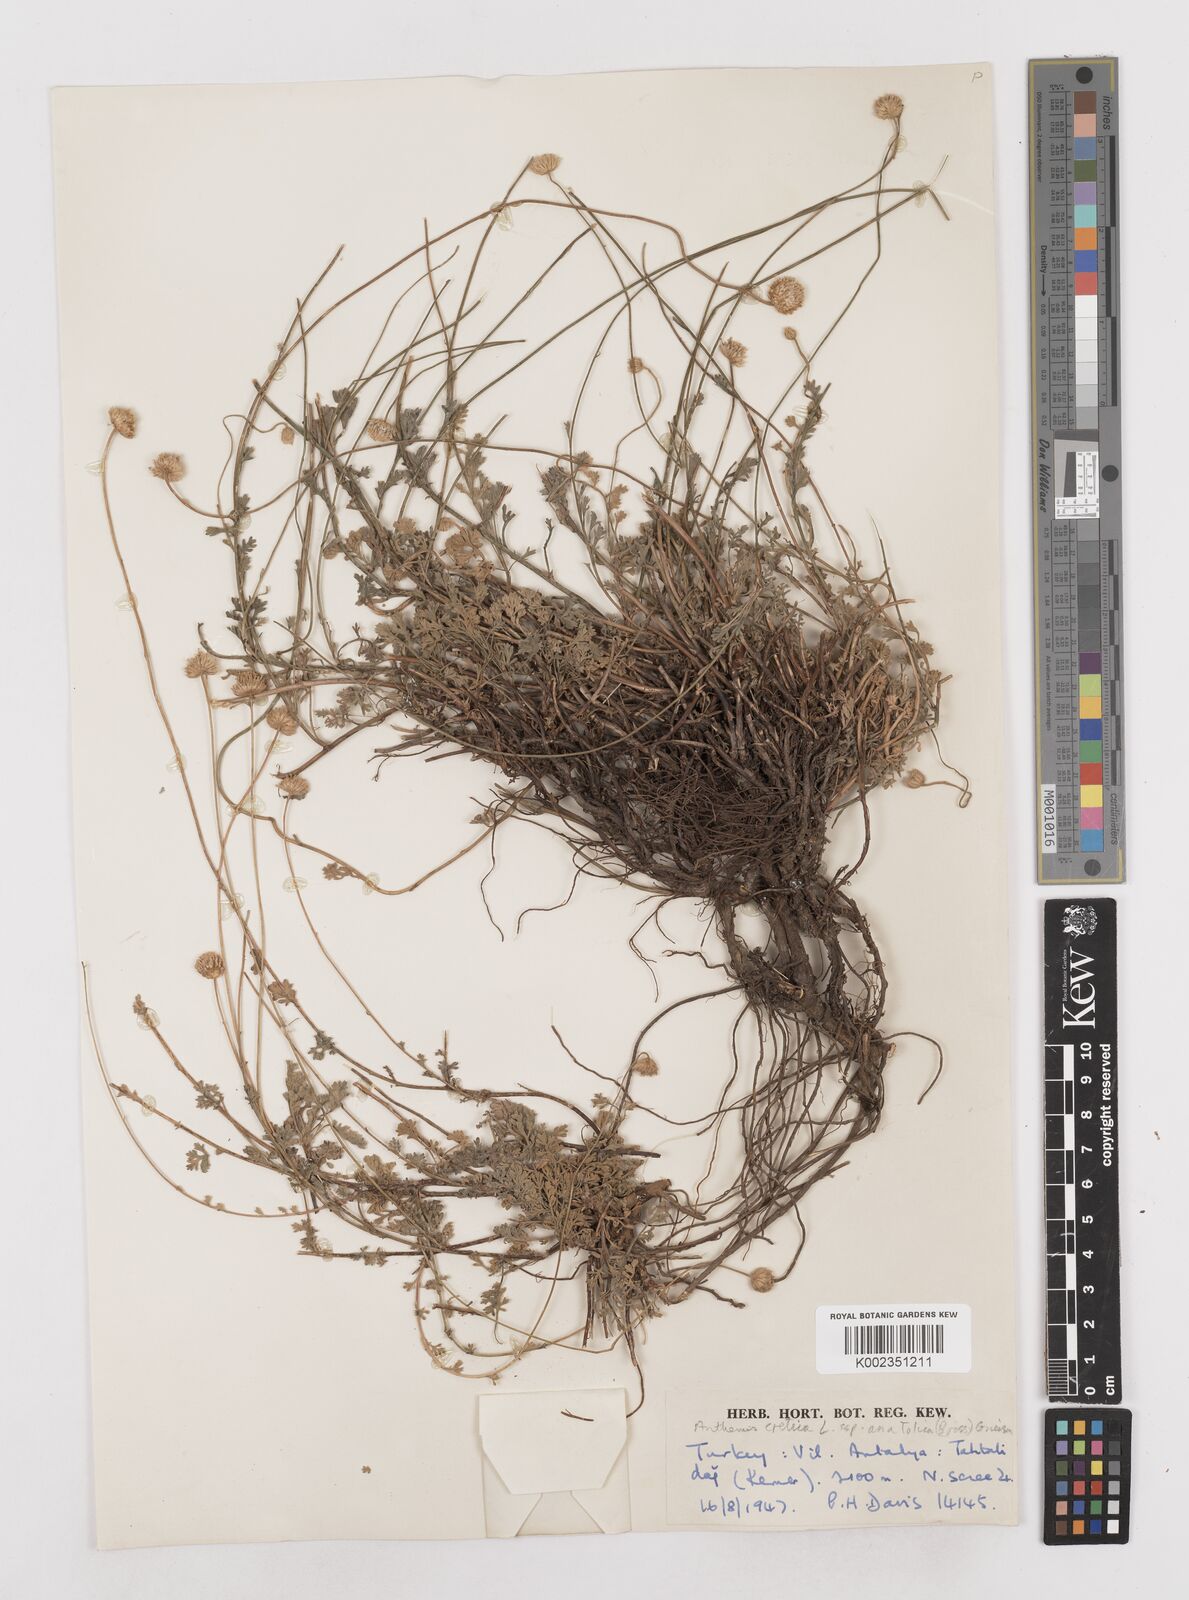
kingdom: Plantae
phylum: Tracheophyta
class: Magnoliopsida
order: Asterales
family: Asteraceae
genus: Anthemis
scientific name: Anthemis cretica
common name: Mountain dog-daisy
